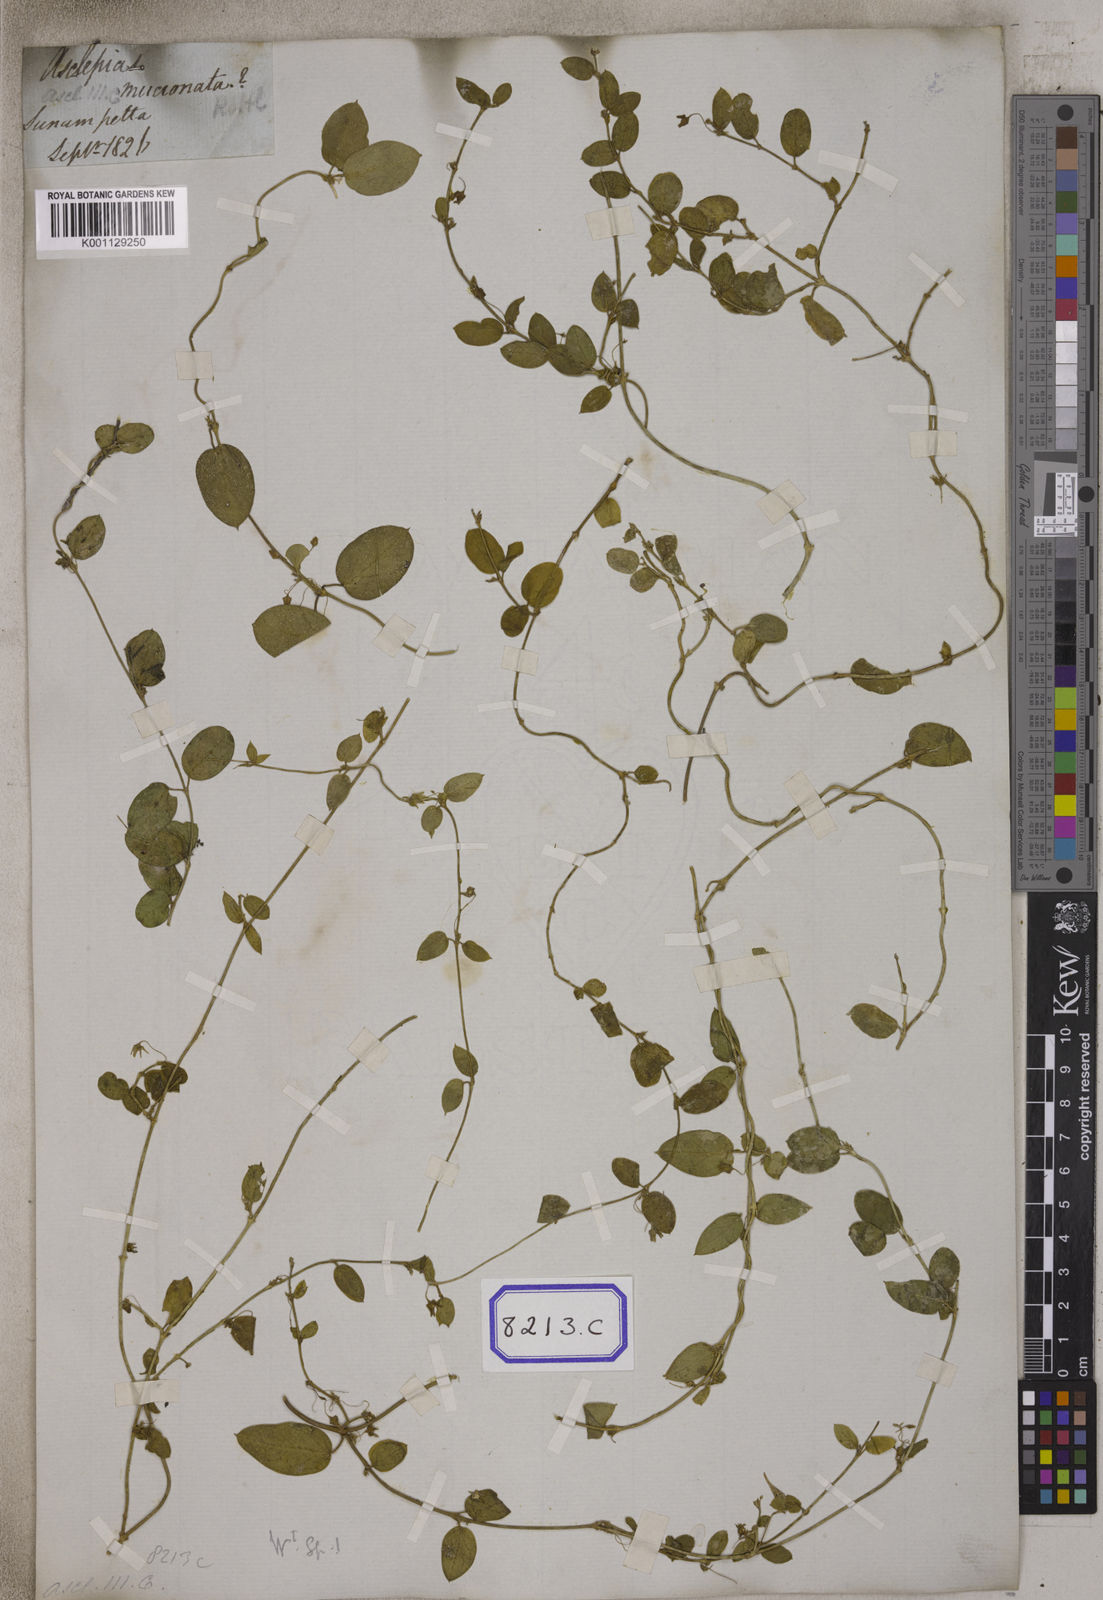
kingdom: Plantae
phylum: Tracheophyta
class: Magnoliopsida
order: Gentianales
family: Apocynaceae
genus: Pentatropis
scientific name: Pentatropis capensis
